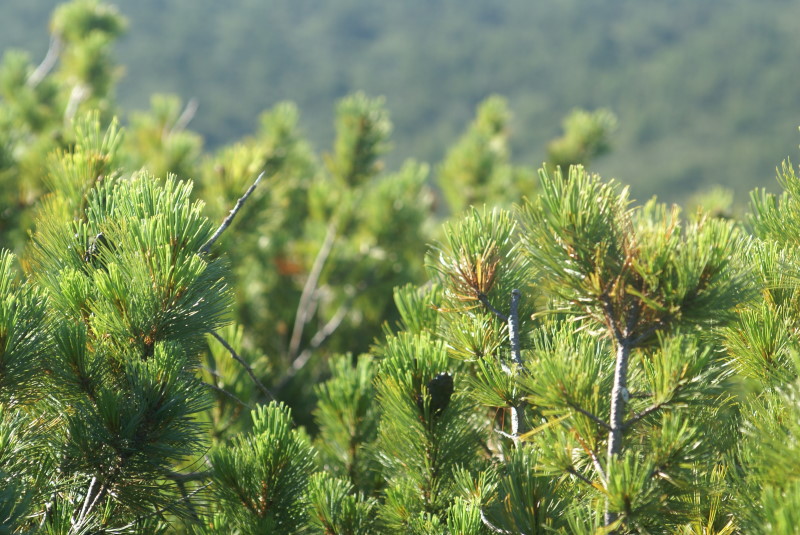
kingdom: Plantae
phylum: Tracheophyta
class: Pinopsida
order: Pinales
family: Pinaceae
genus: Pinus
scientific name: Pinus pumila
